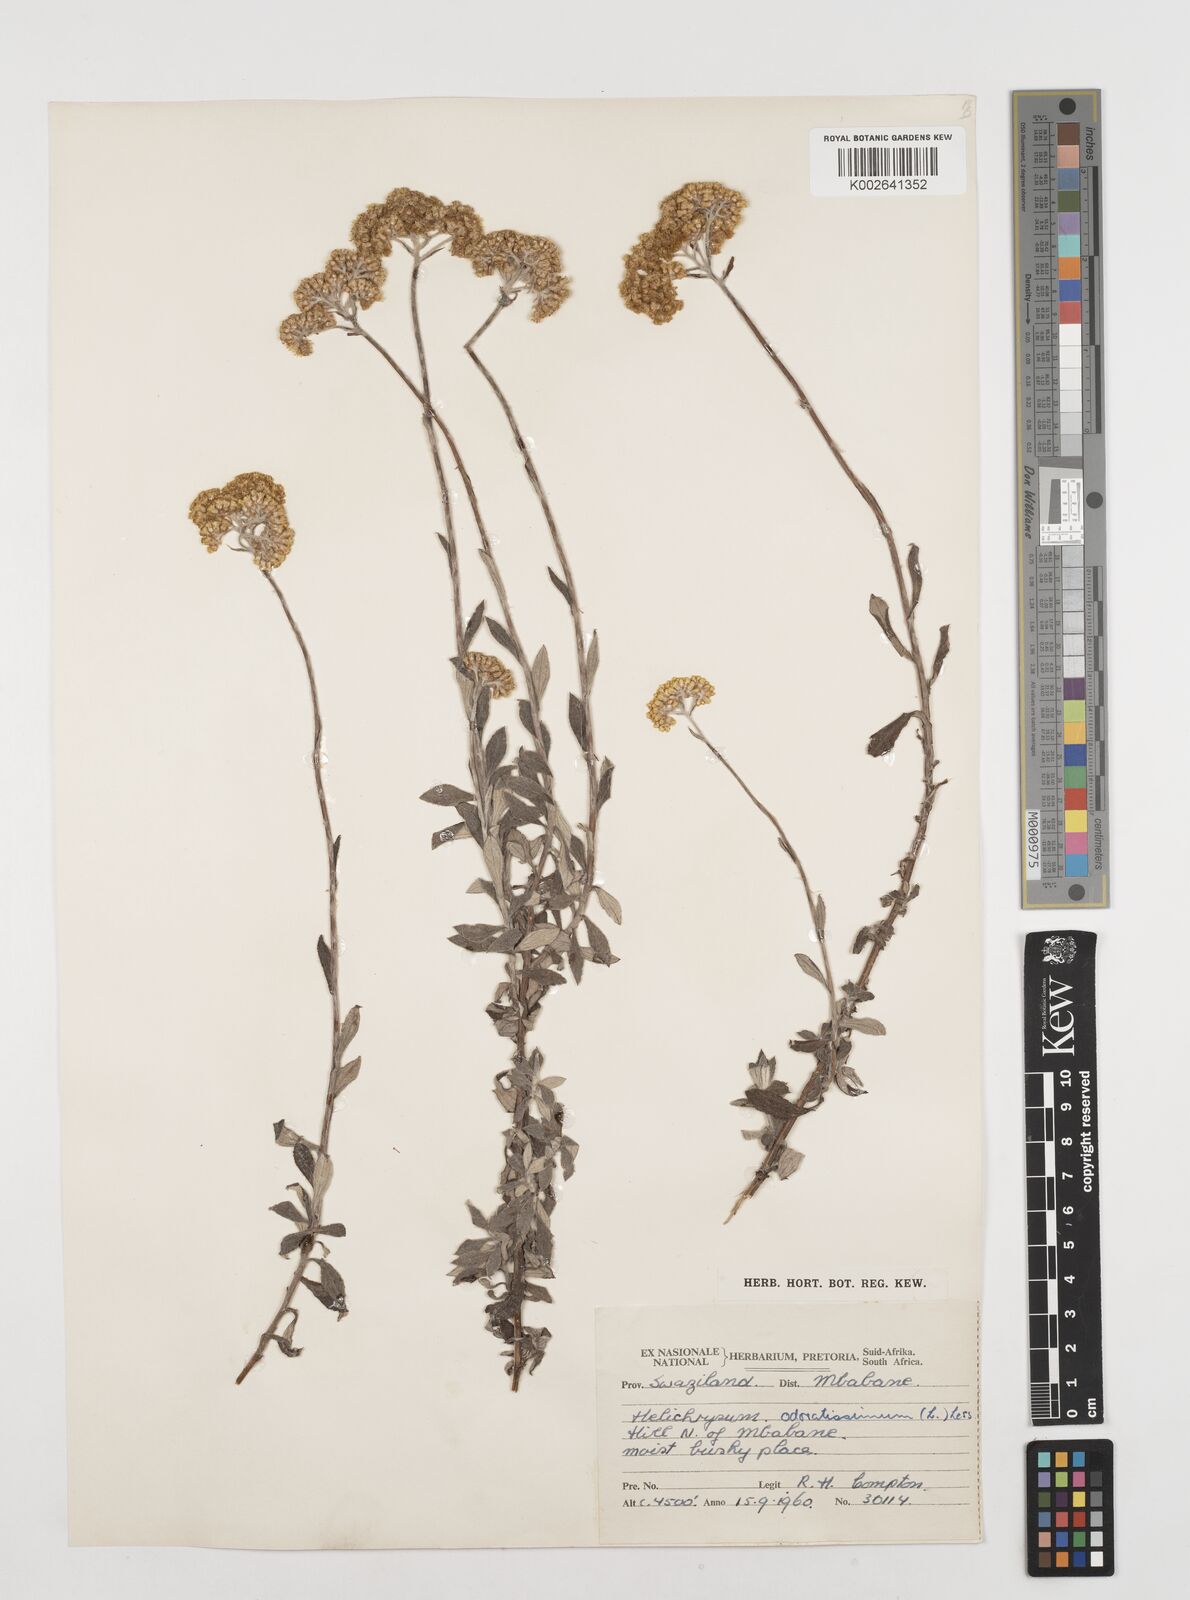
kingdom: Plantae
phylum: Tracheophyta
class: Magnoliopsida
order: Asterales
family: Asteraceae
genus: Helichrysum
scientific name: Helichrysum odoratissimum
